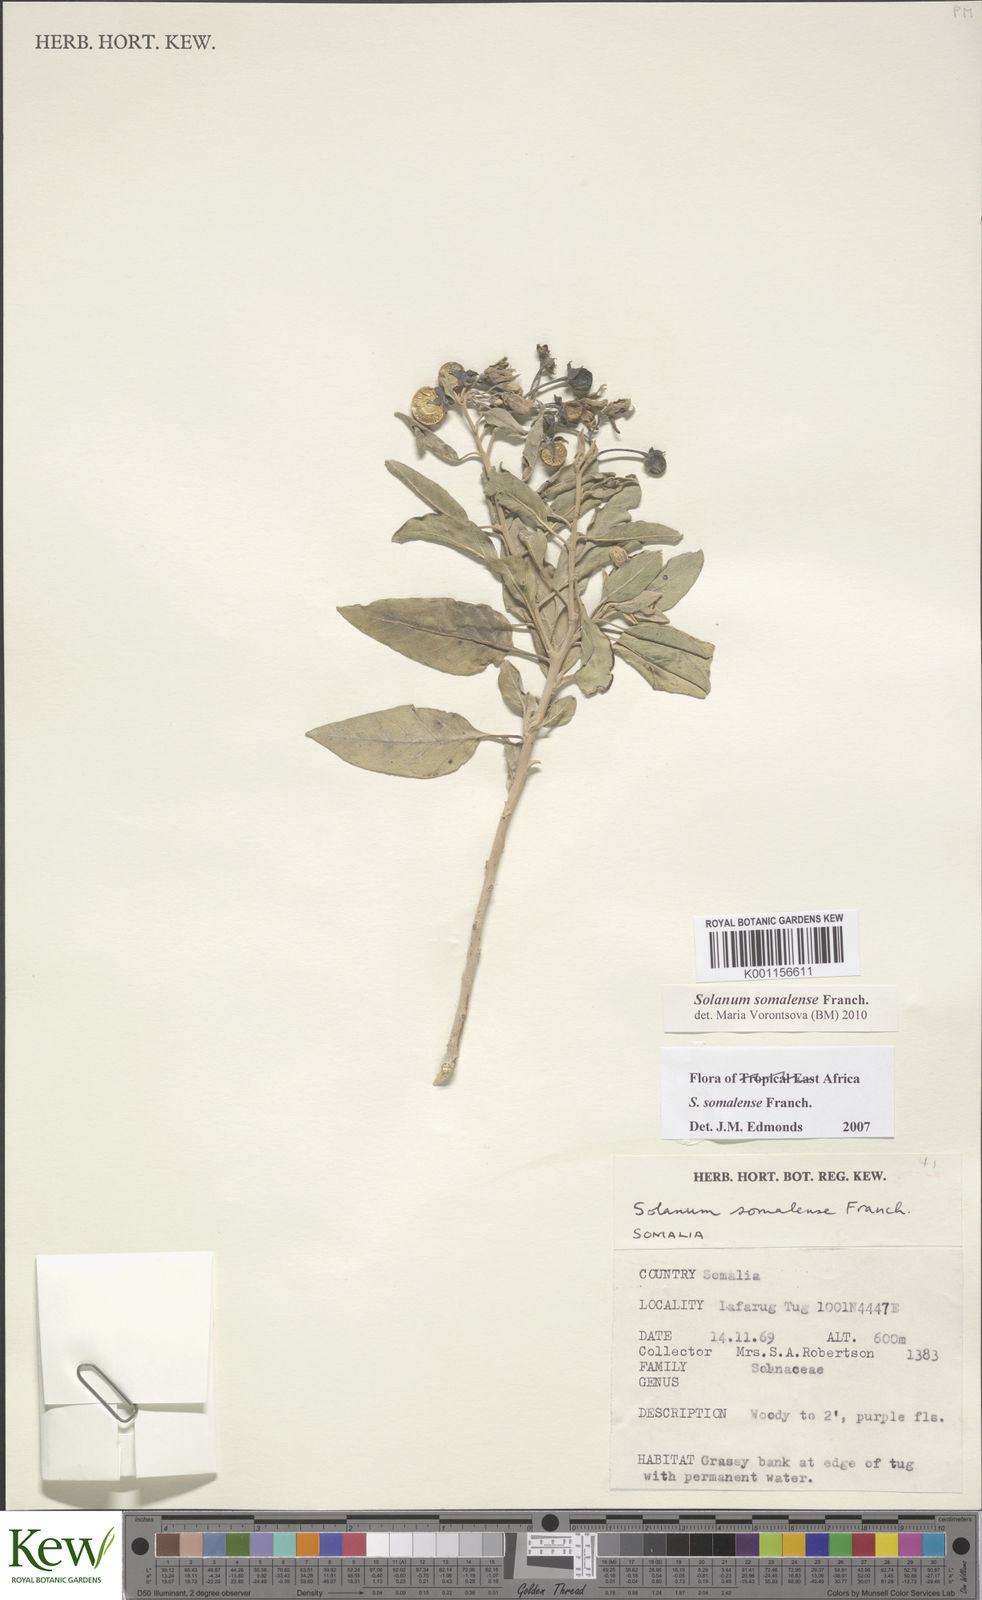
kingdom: Plantae
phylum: Tracheophyta
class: Magnoliopsida
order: Solanales
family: Solanaceae
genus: Solanum
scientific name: Solanum somalense
